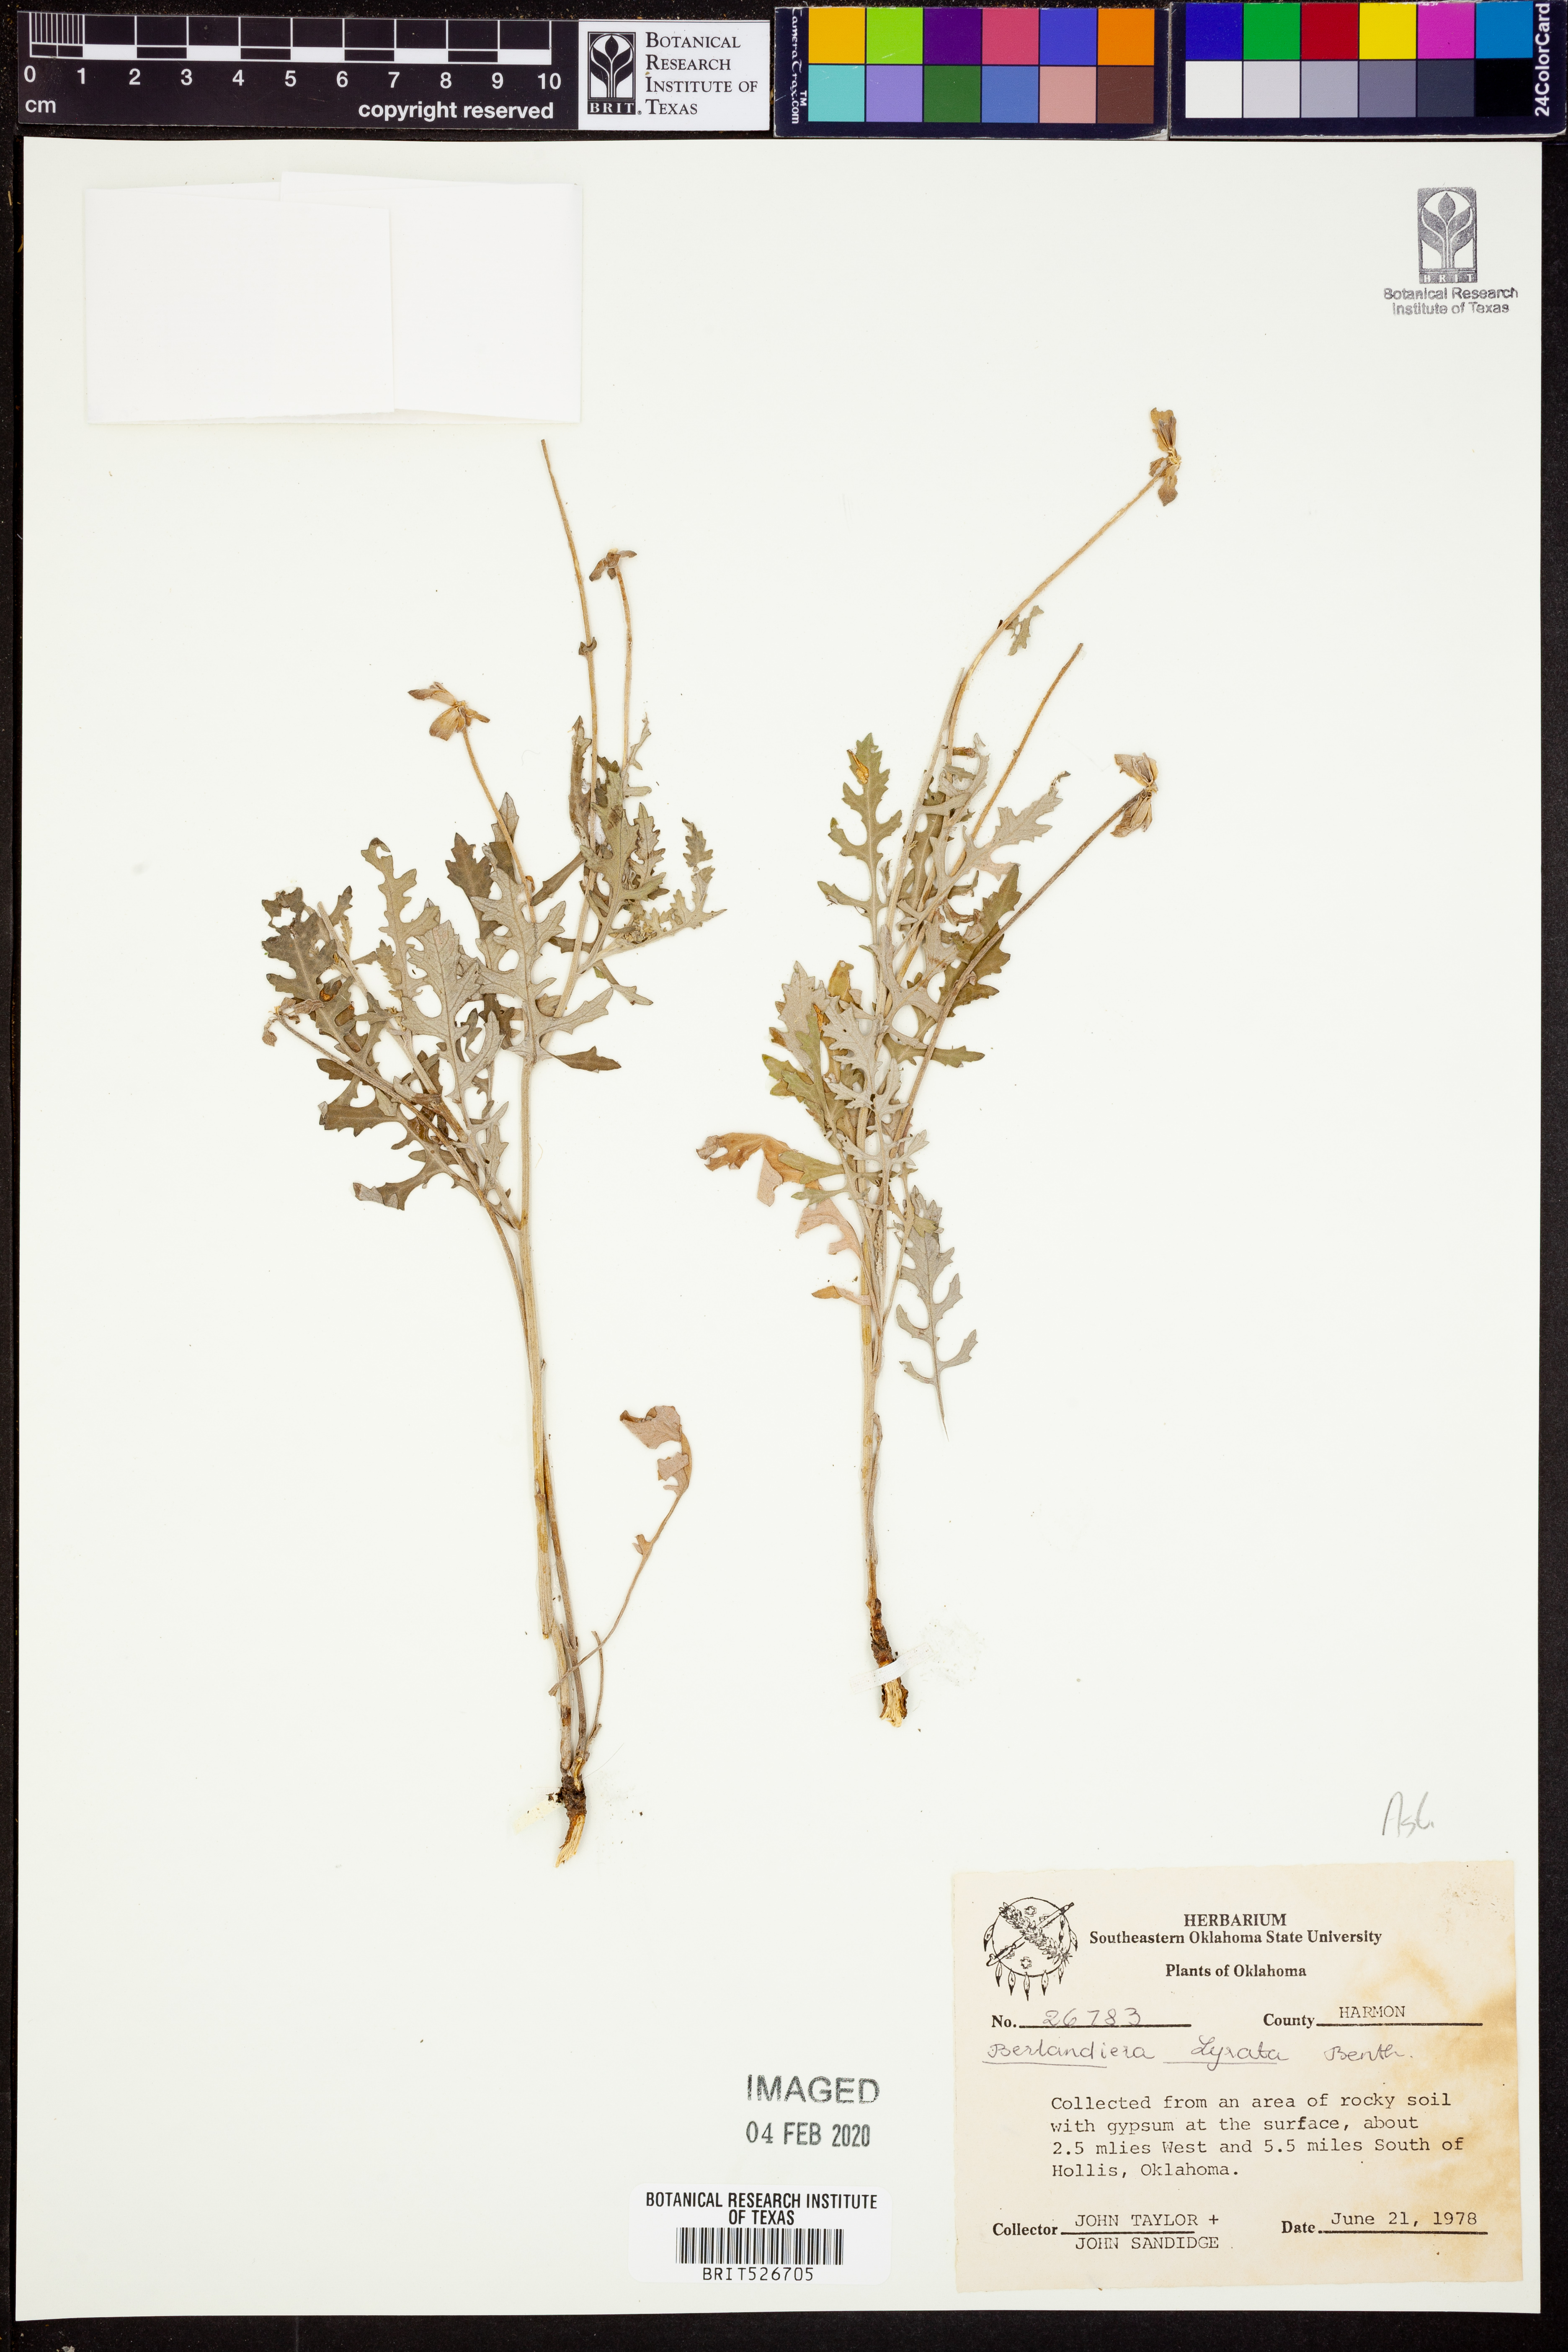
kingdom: Plantae
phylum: Tracheophyta
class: Magnoliopsida
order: Asterales
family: Asteraceae
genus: Berlandiera
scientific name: Berlandiera lyrata
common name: Chocolate-flower
